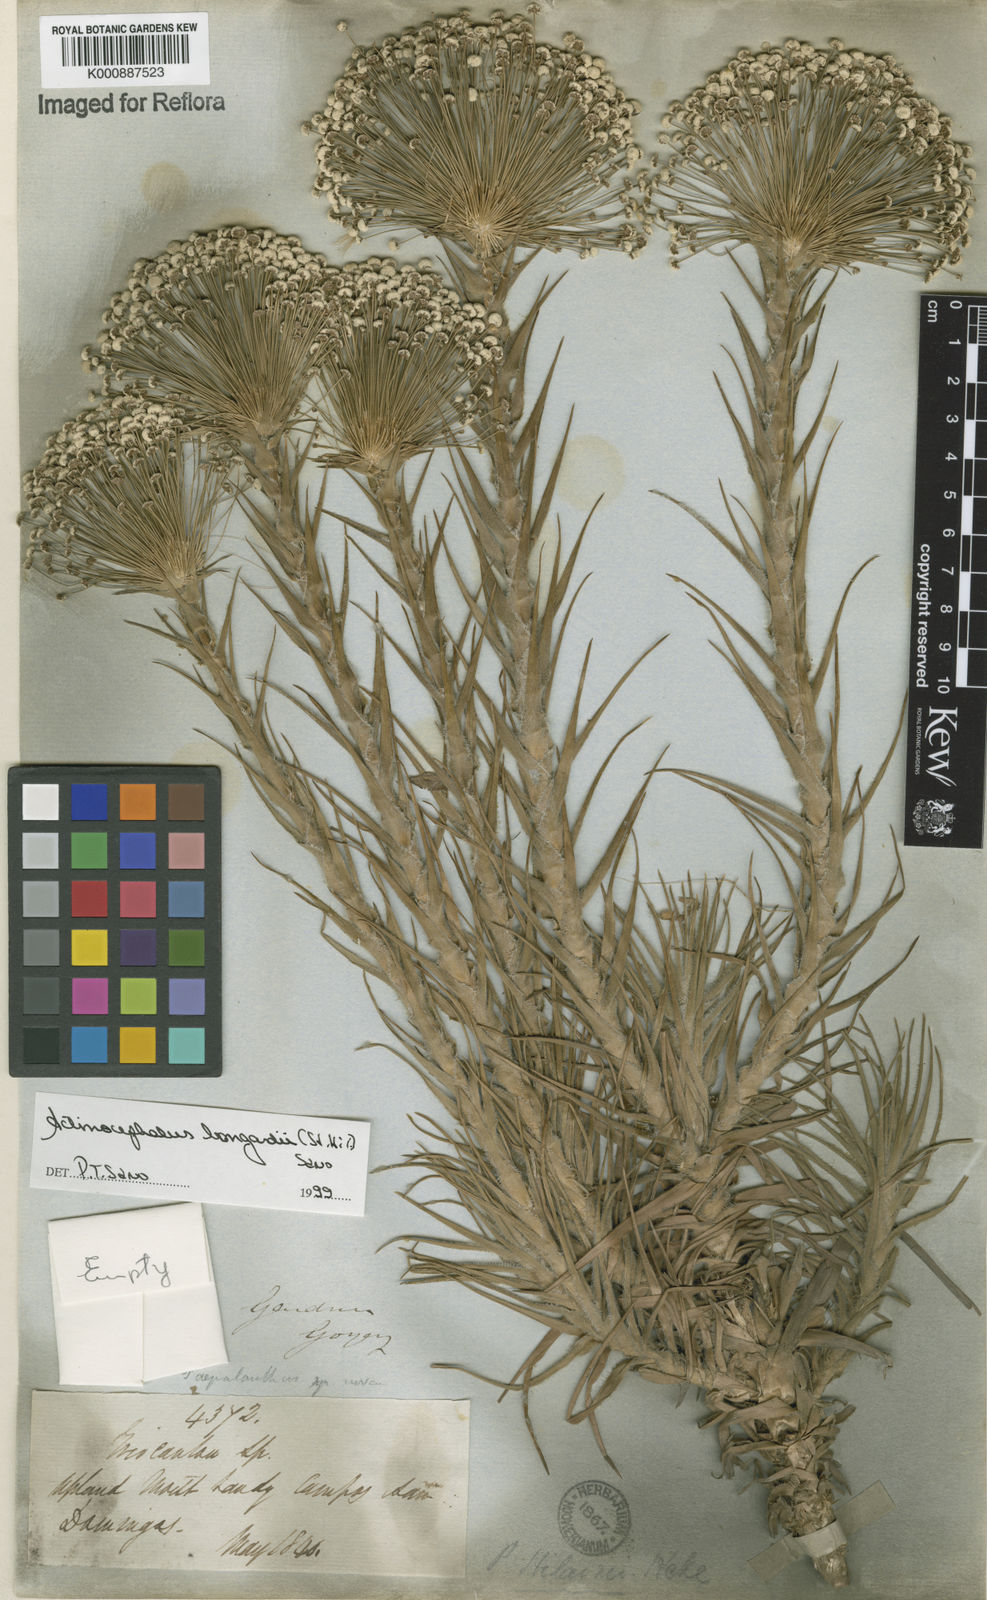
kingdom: Plantae
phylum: Tracheophyta
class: Liliopsida
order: Poales
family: Eriocaulaceae
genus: Paepalanthus
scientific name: Paepalanthus hilairei
